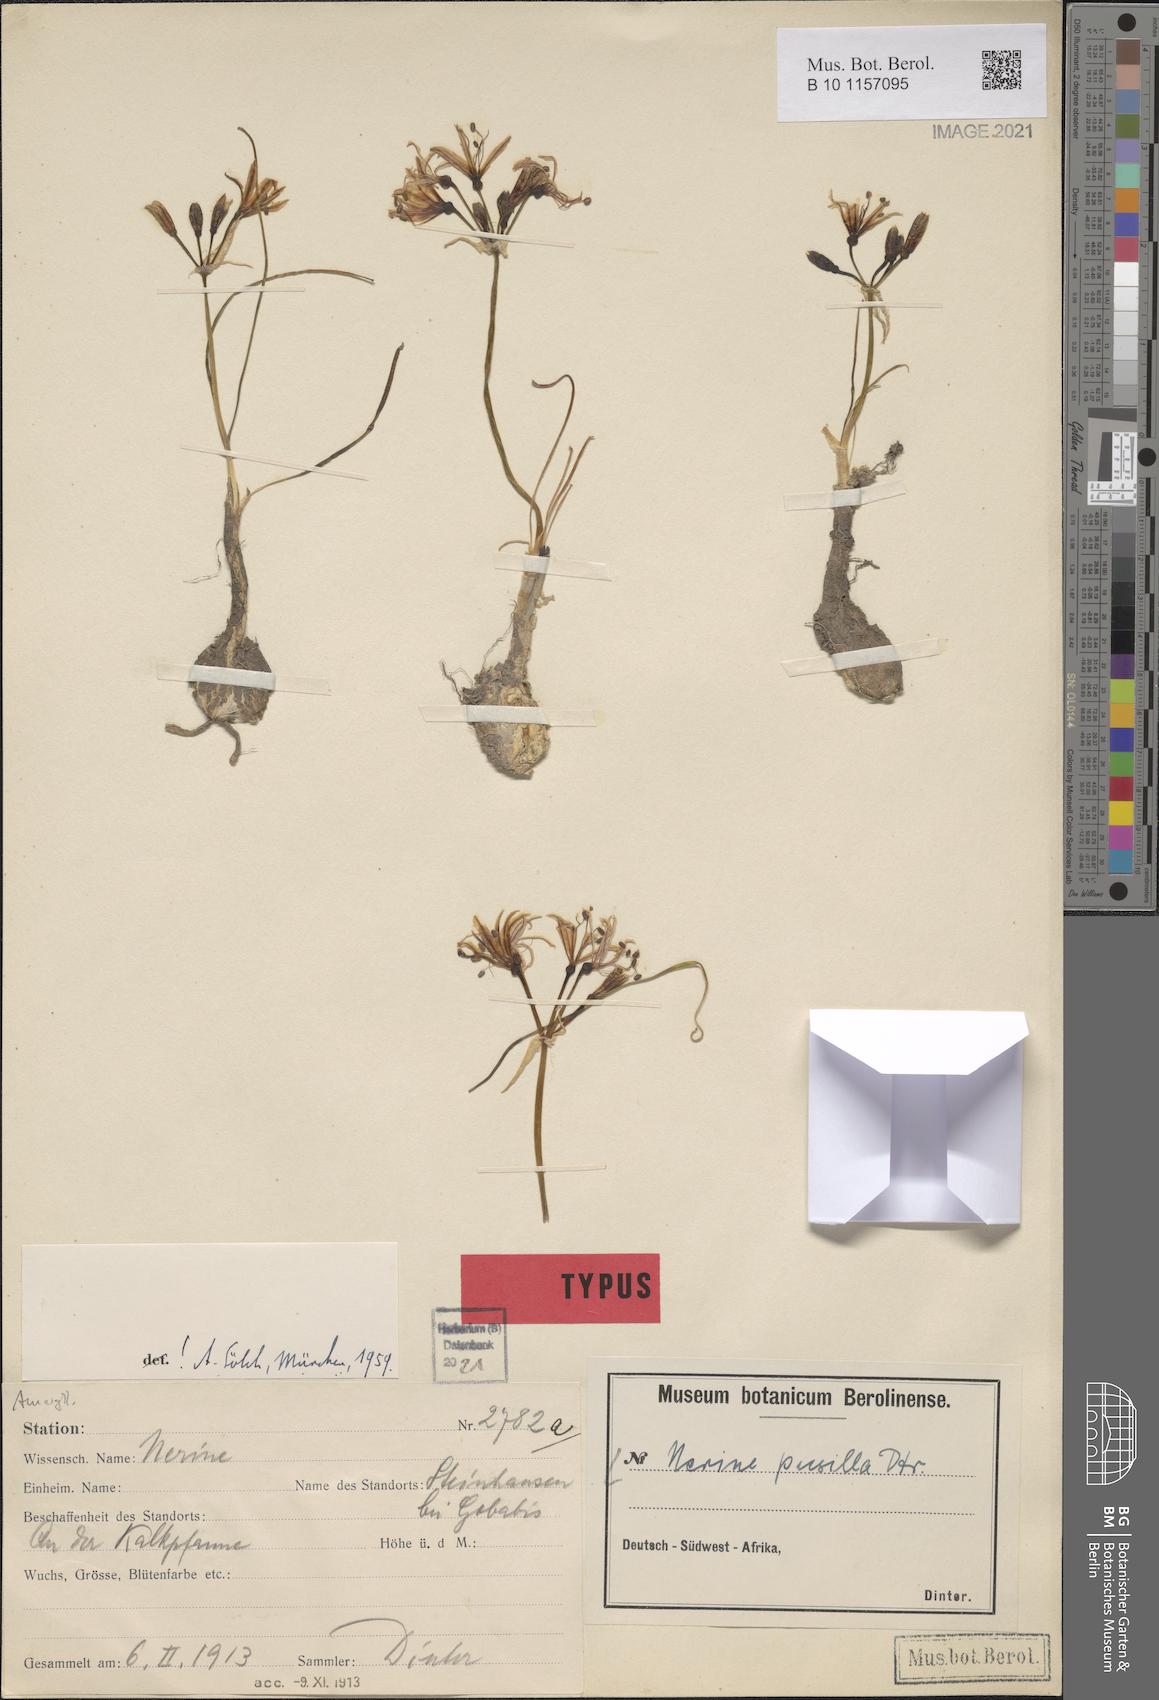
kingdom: Plantae
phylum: Tracheophyta
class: Liliopsida
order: Asparagales
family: Amaryllidaceae
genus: Nerine
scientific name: Nerine pusilla
